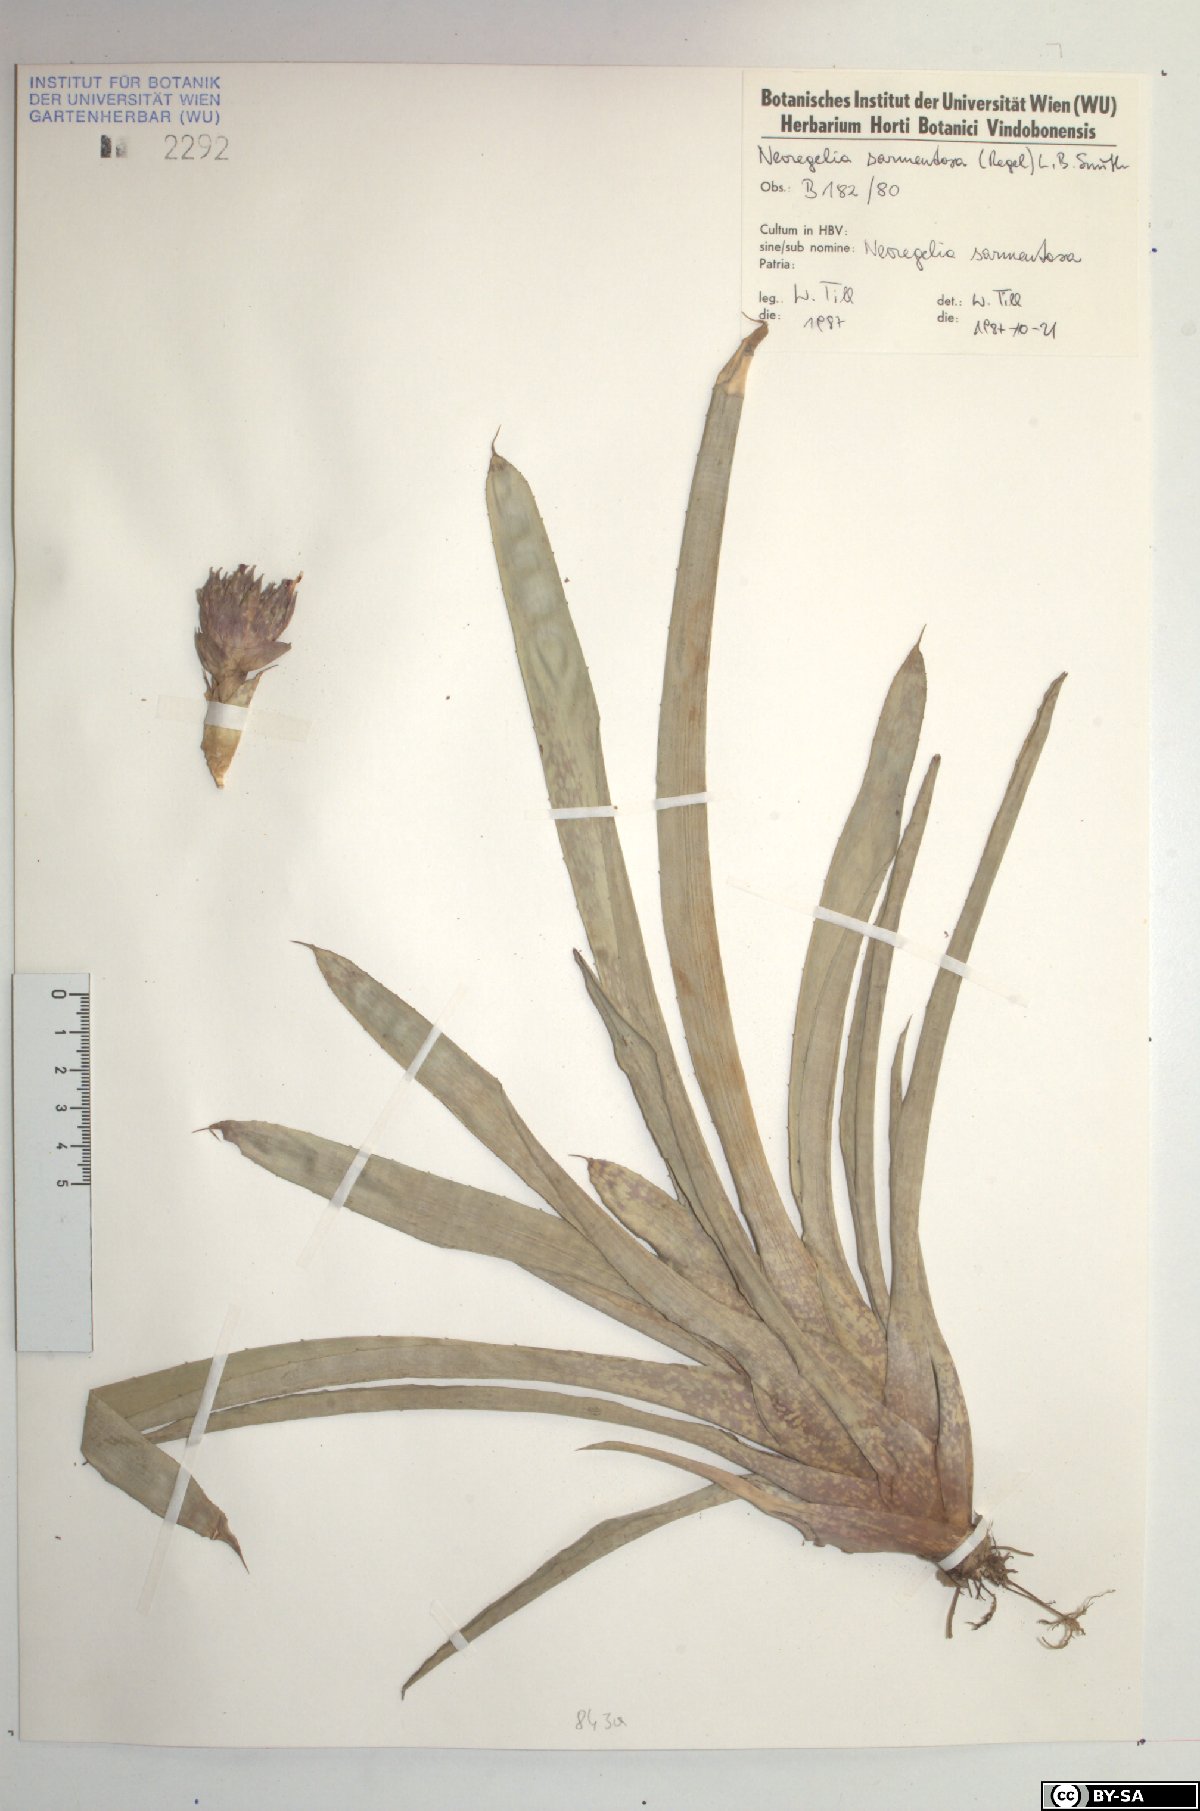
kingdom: Plantae
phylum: Tracheophyta
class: Liliopsida
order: Poales
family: Bromeliaceae
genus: Neoregelia
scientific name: Neoregelia sarmentosa
